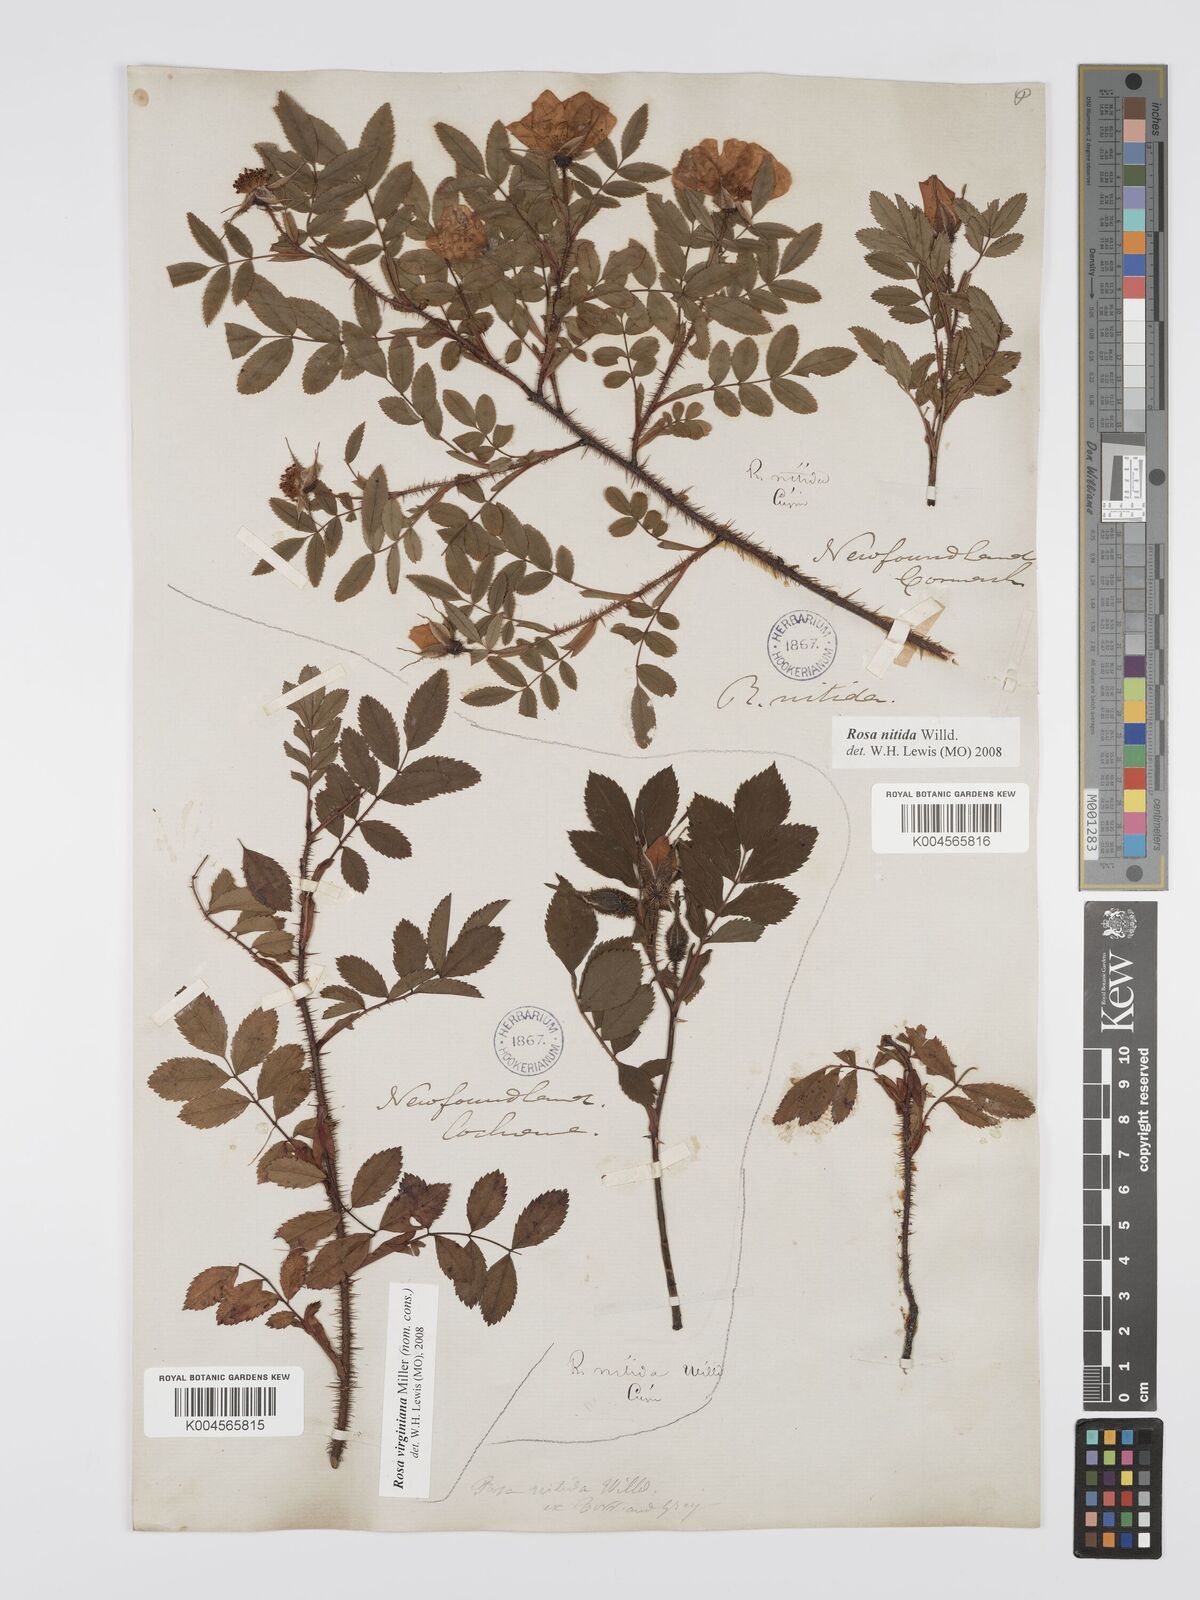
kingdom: Plantae
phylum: Tracheophyta
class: Magnoliopsida
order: Rosales
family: Rosaceae
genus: Rosa
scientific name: Rosa nitida
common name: New england rose
